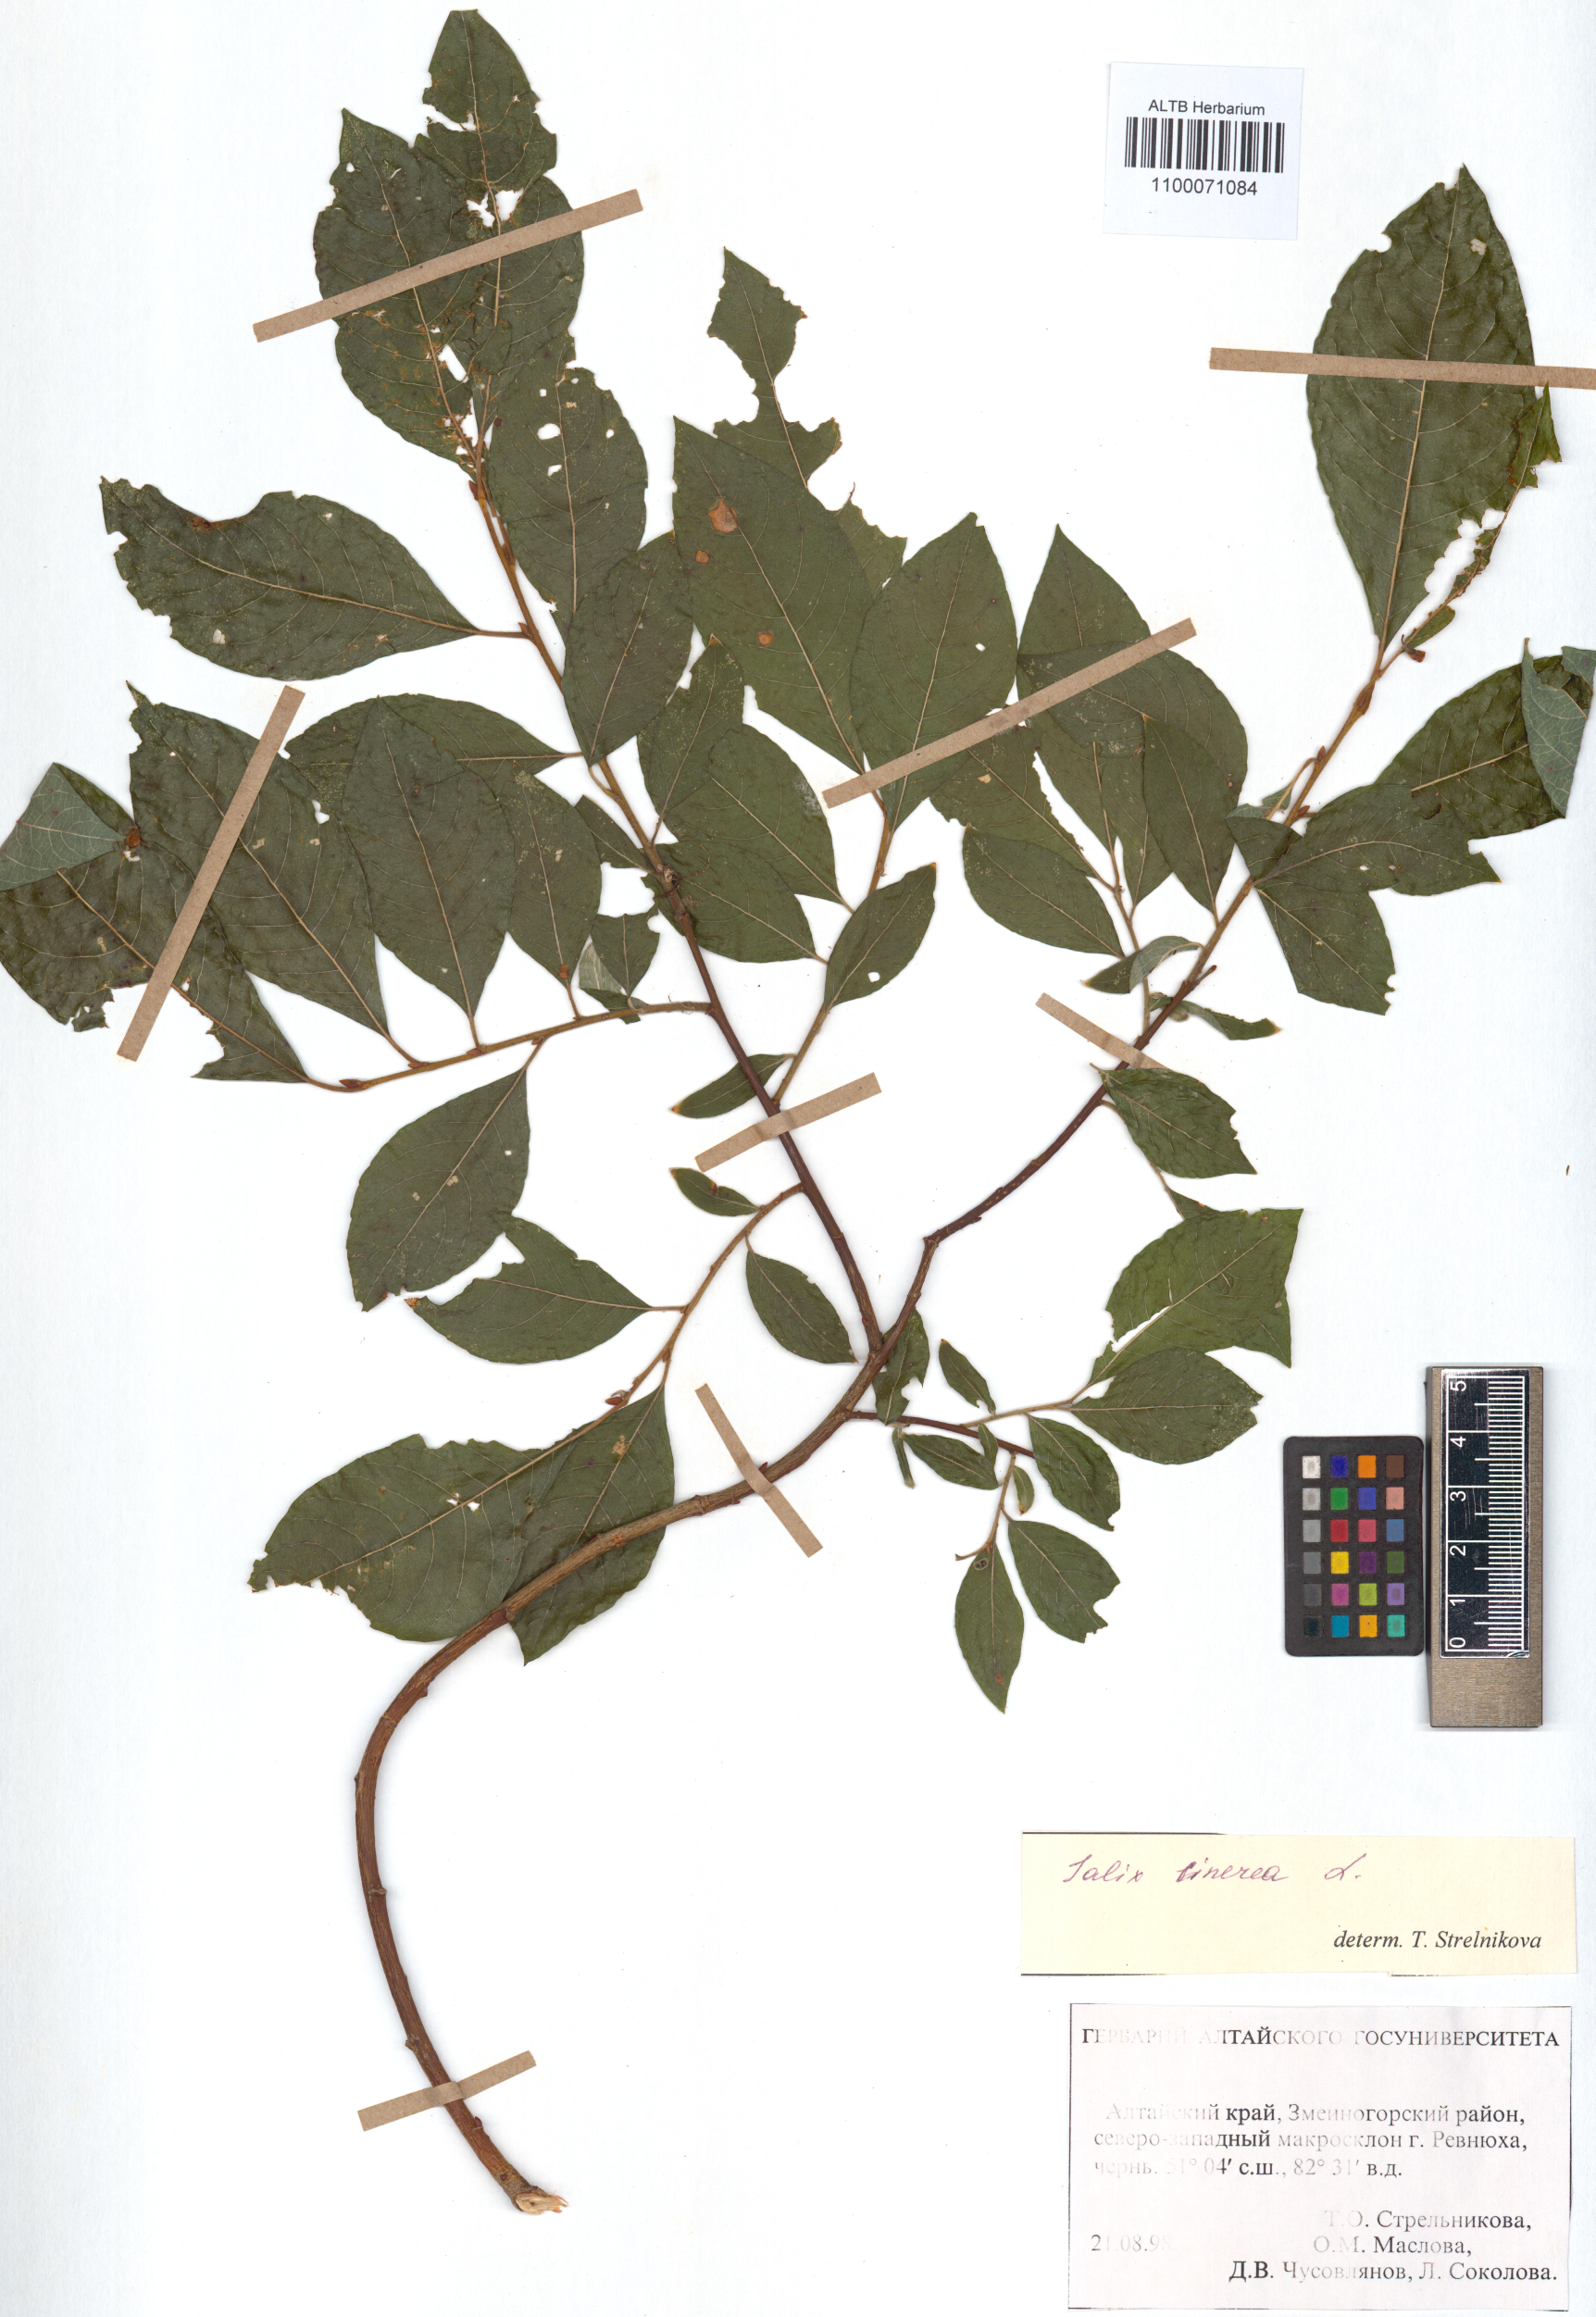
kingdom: Plantae
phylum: Tracheophyta
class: Magnoliopsida
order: Malpighiales
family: Salicaceae
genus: Salix
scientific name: Salix cinerea
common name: Common sallow
